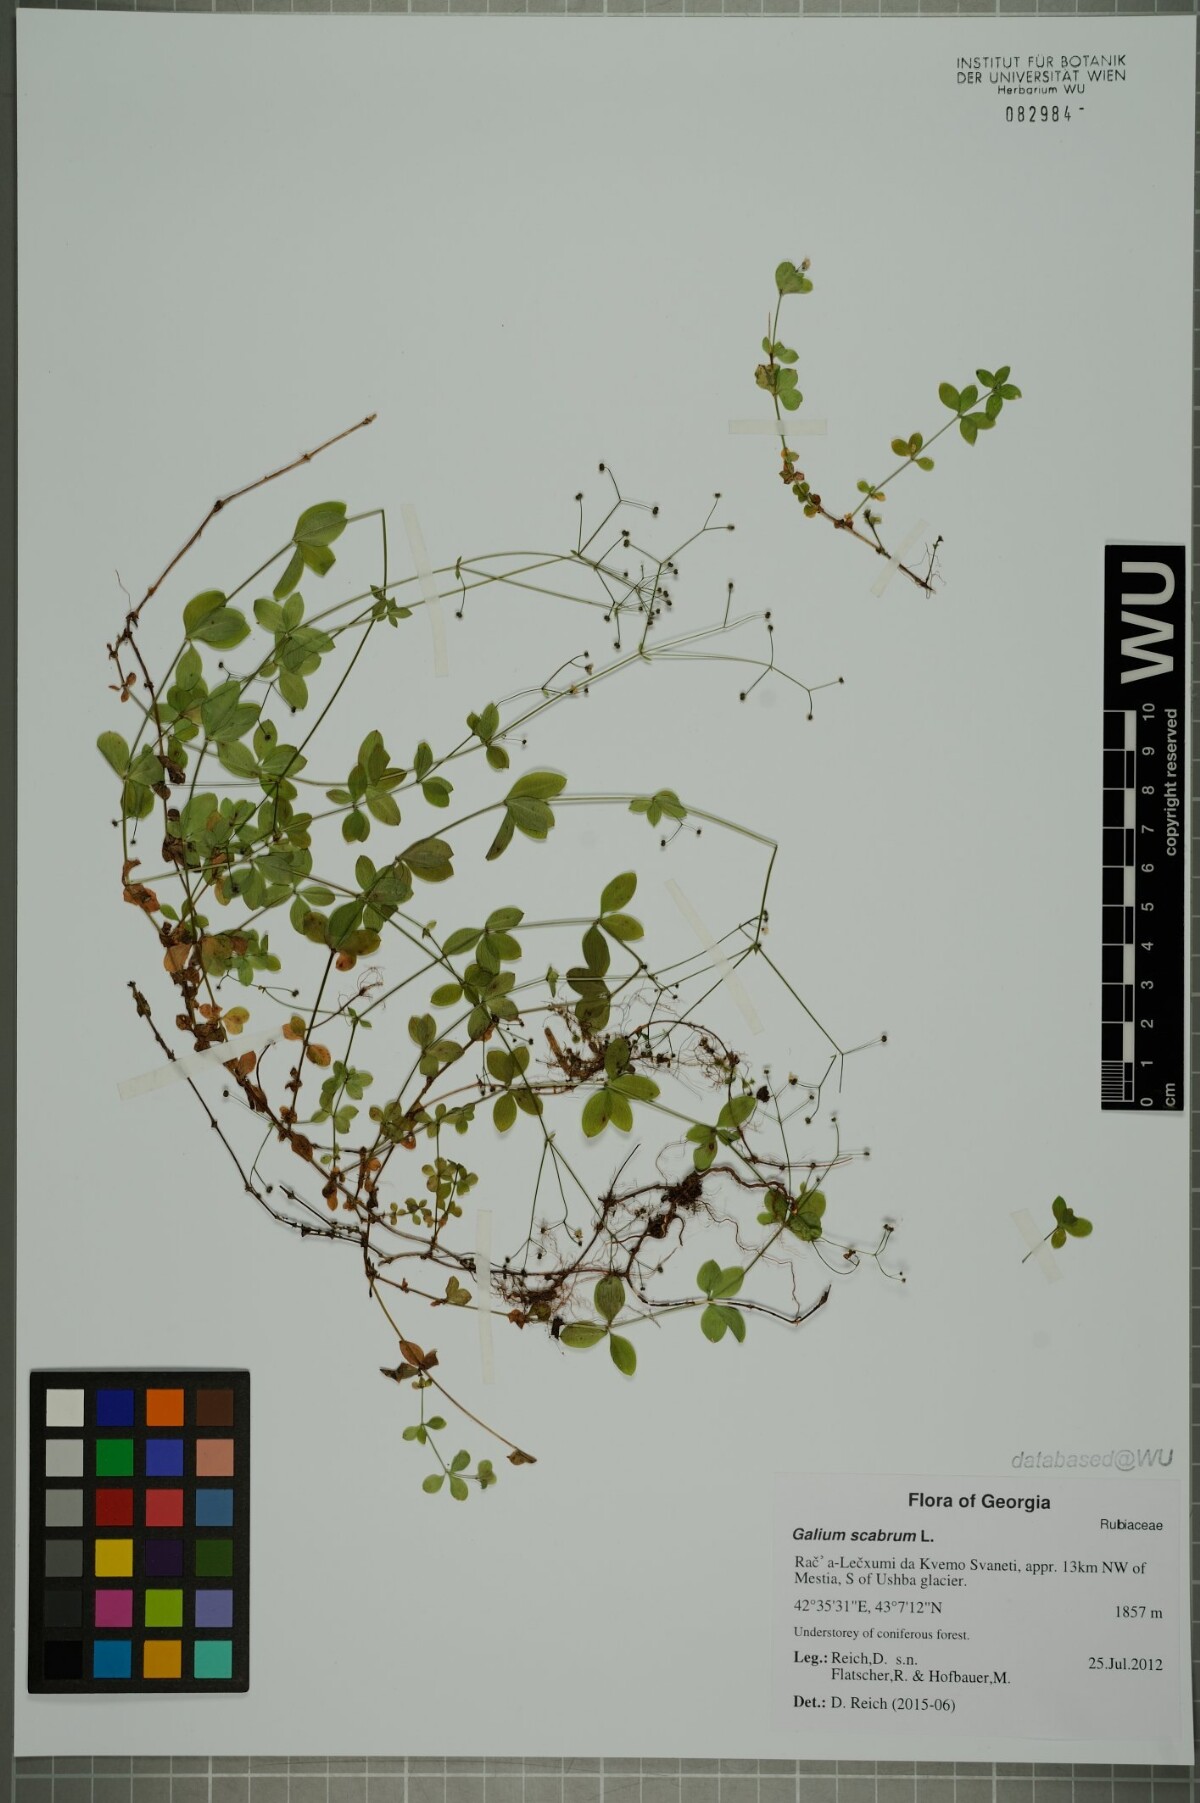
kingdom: Plantae
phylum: Tracheophyta
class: Magnoliopsida
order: Gentianales
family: Rubiaceae
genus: Galium
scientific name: Galium scabrum
